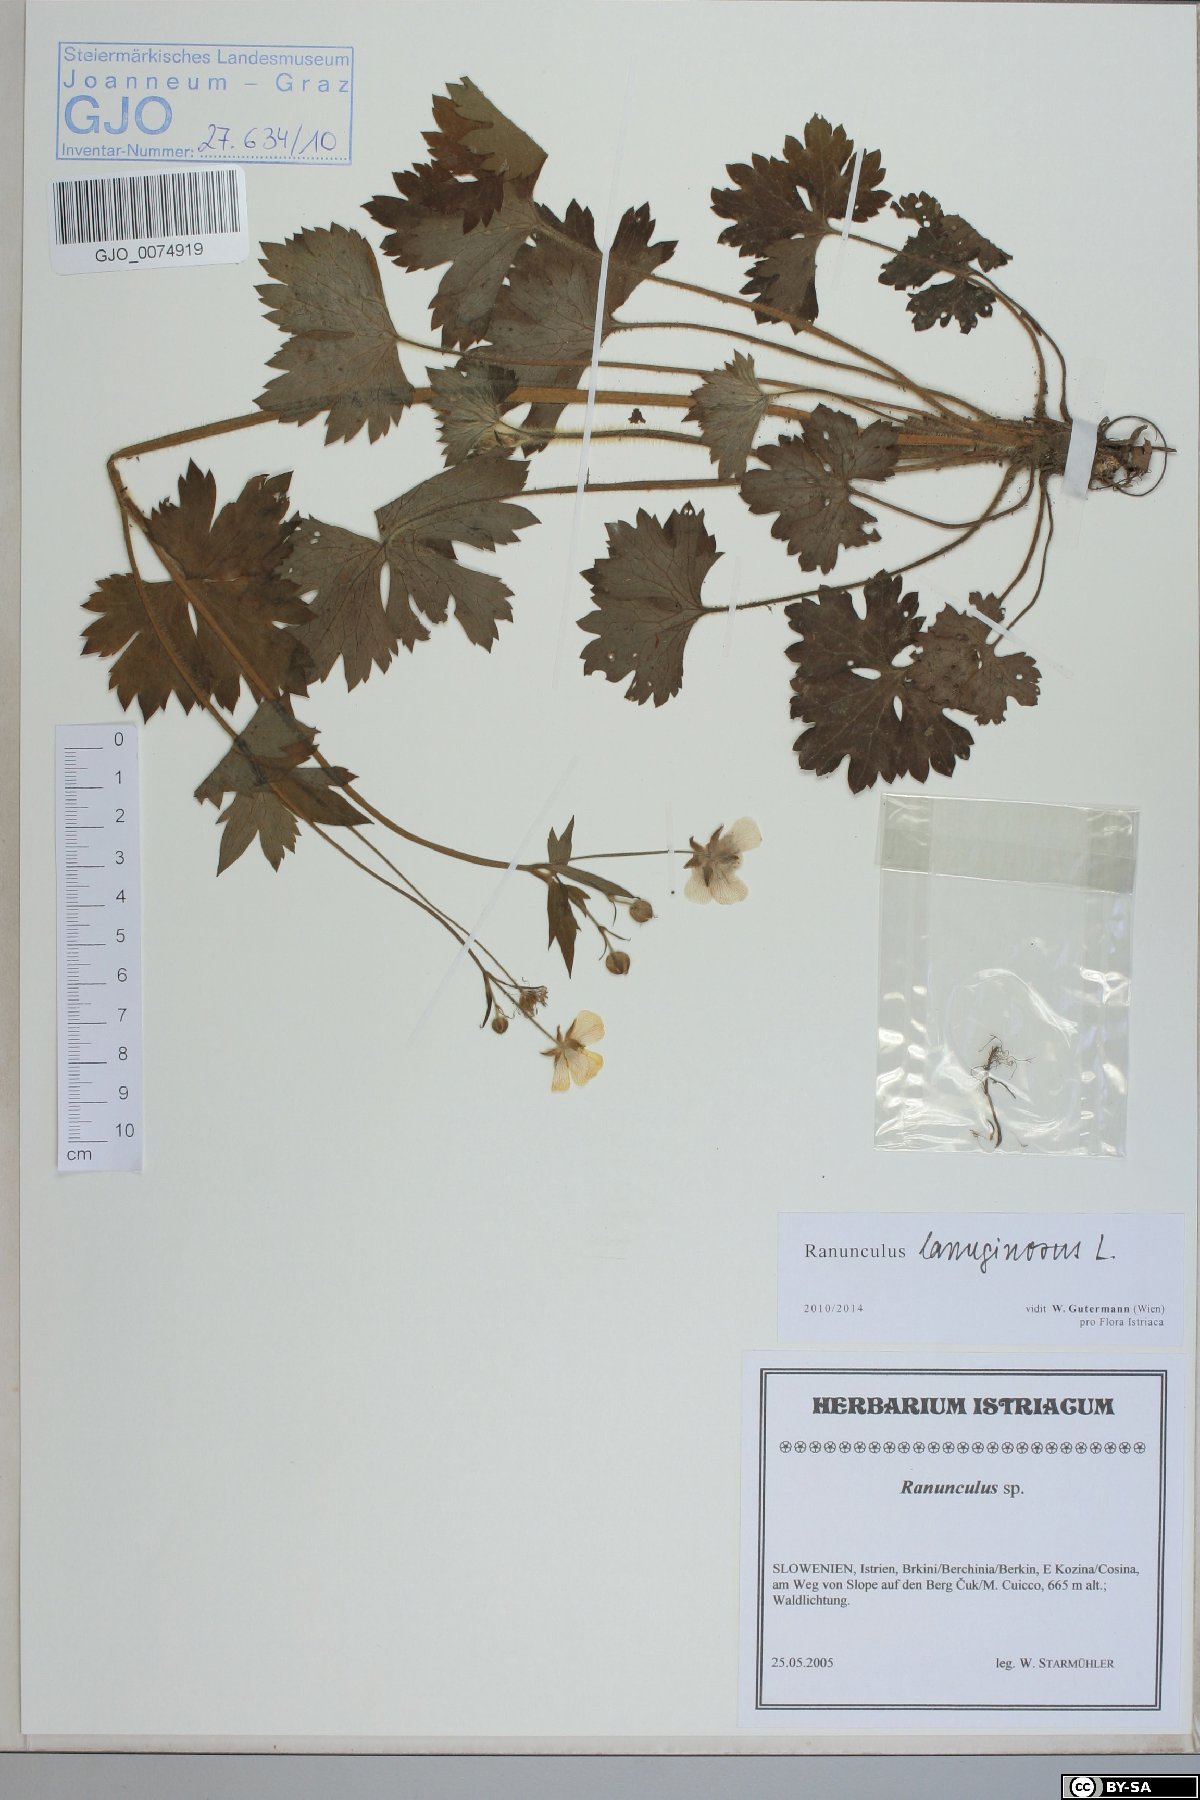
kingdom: Plantae
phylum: Tracheophyta
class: Magnoliopsida
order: Ranunculales
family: Ranunculaceae
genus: Ranunculus
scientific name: Ranunculus lanuginosus
